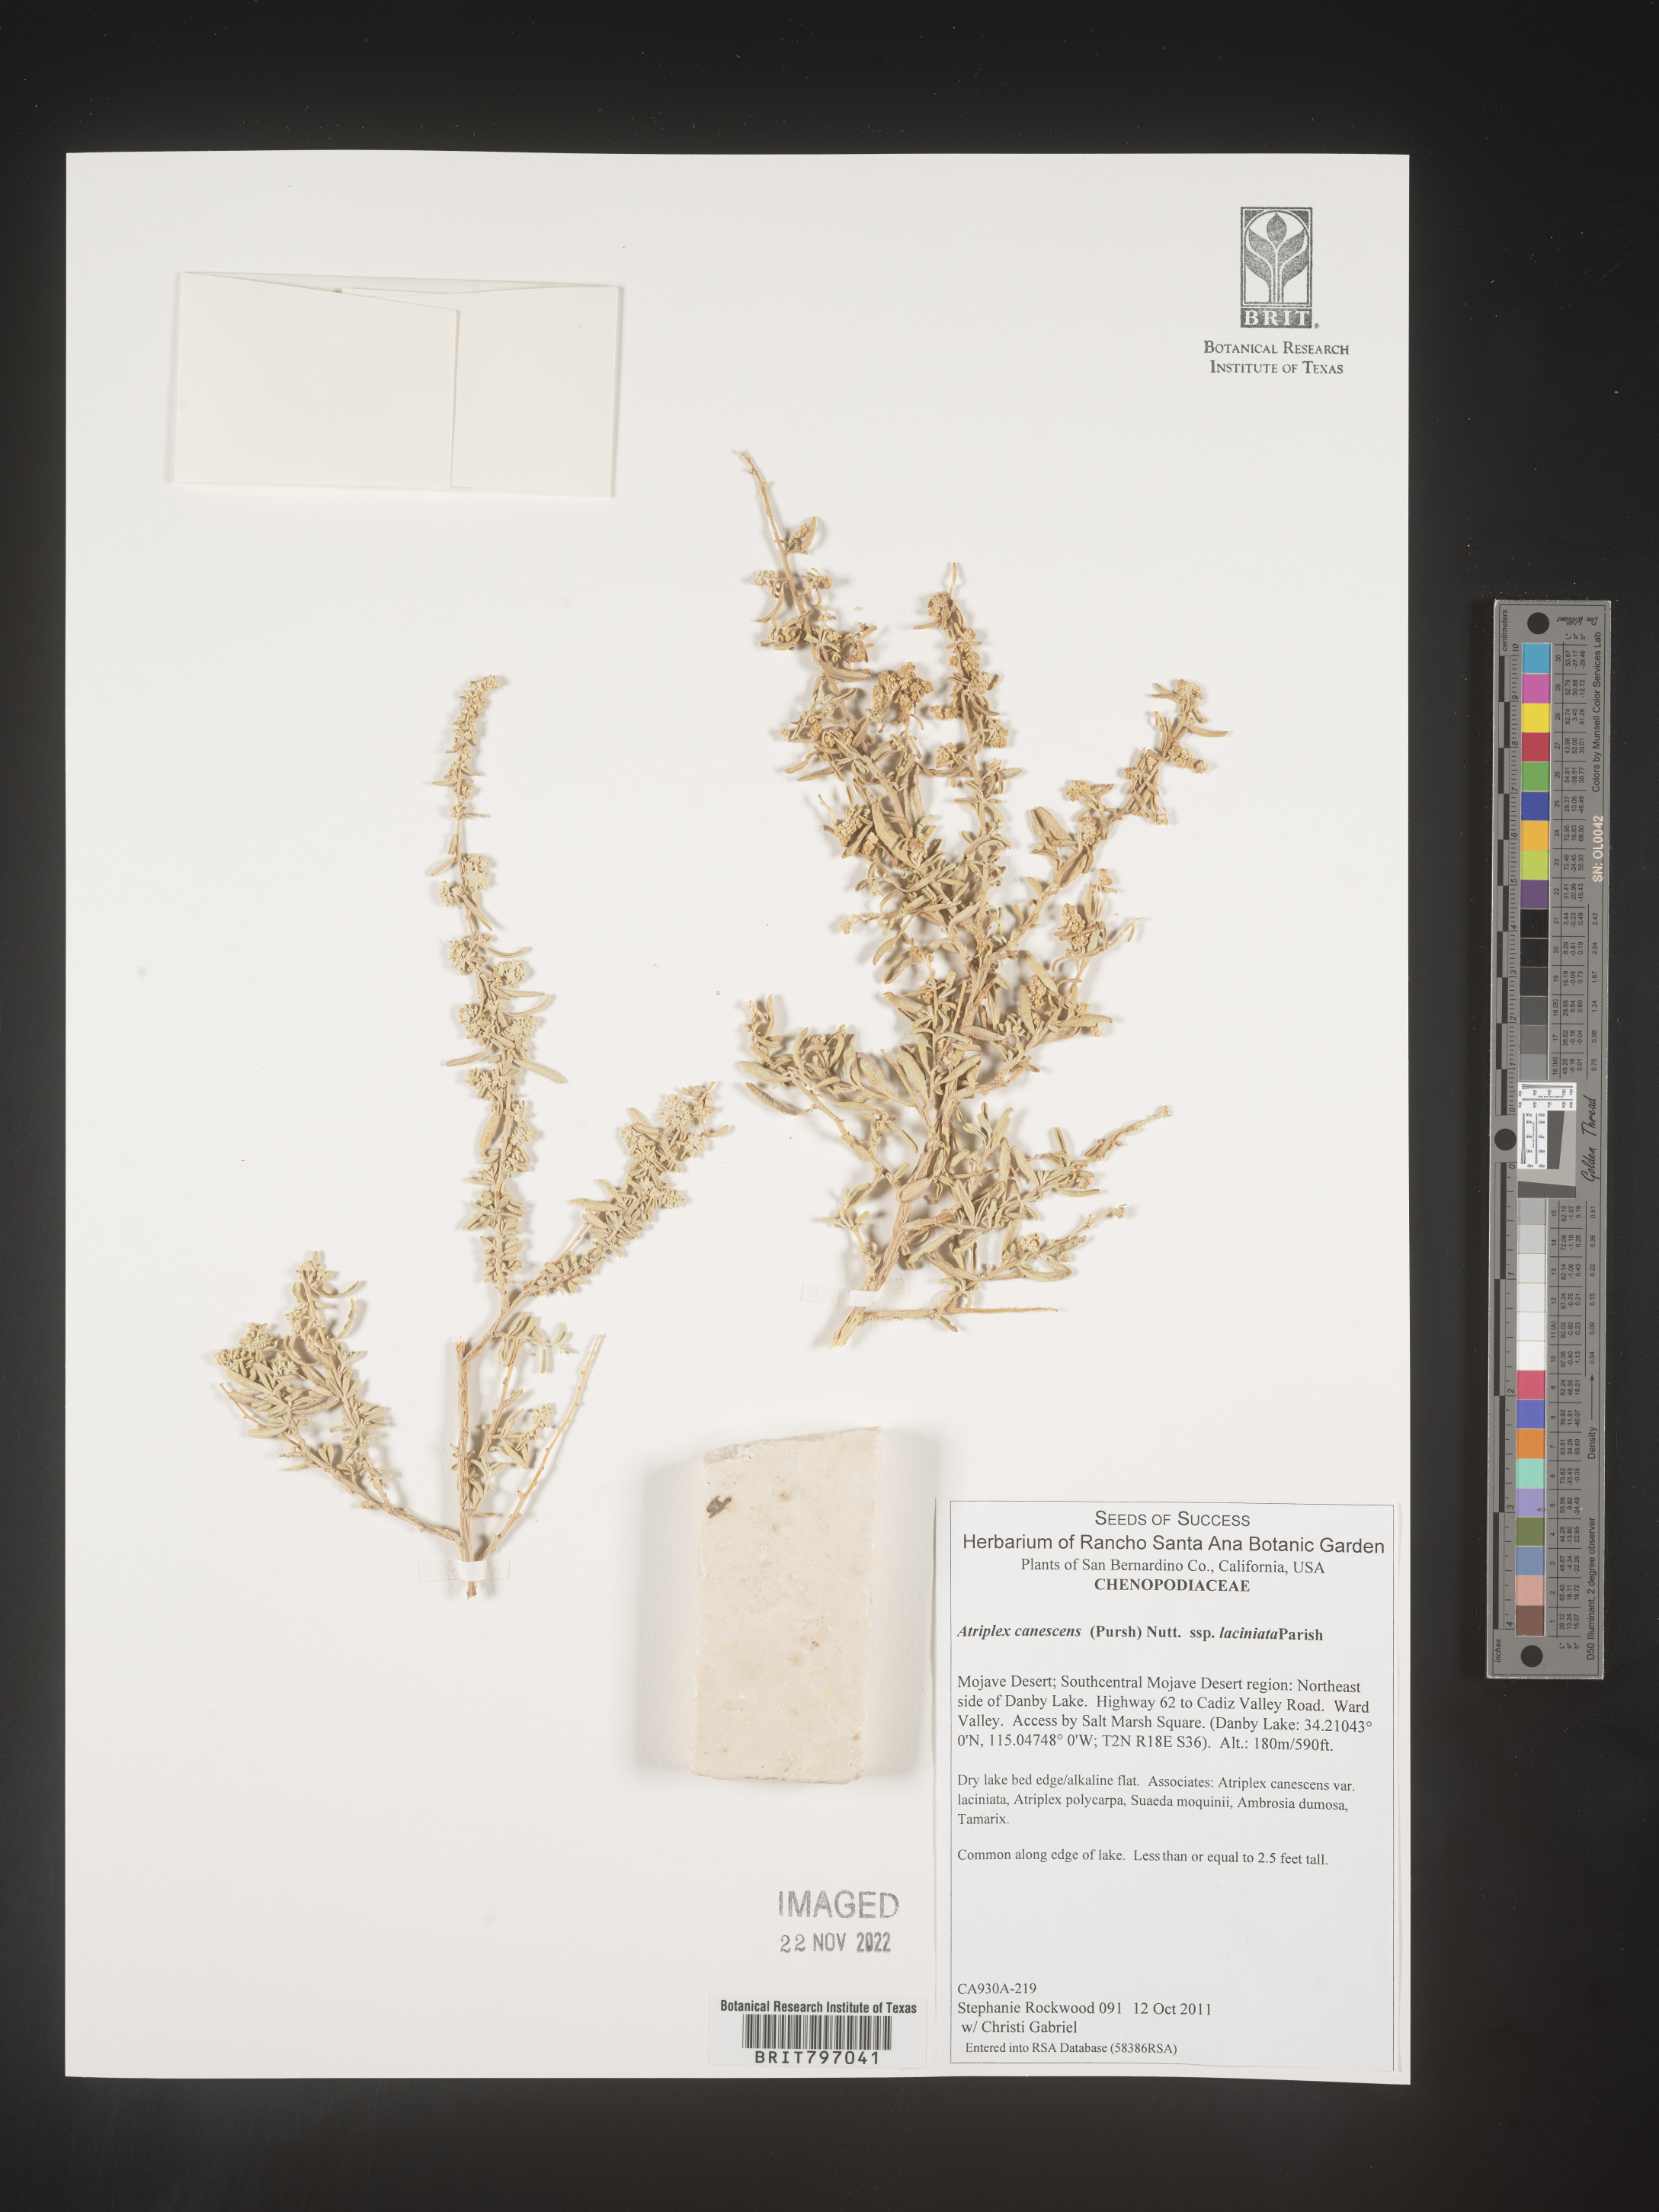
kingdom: Plantae
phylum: Tracheophyta
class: Magnoliopsida
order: Caryophyllales
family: Amaranthaceae
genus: Atriplex
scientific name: Atriplex canescens
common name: Four-wing saltbush
